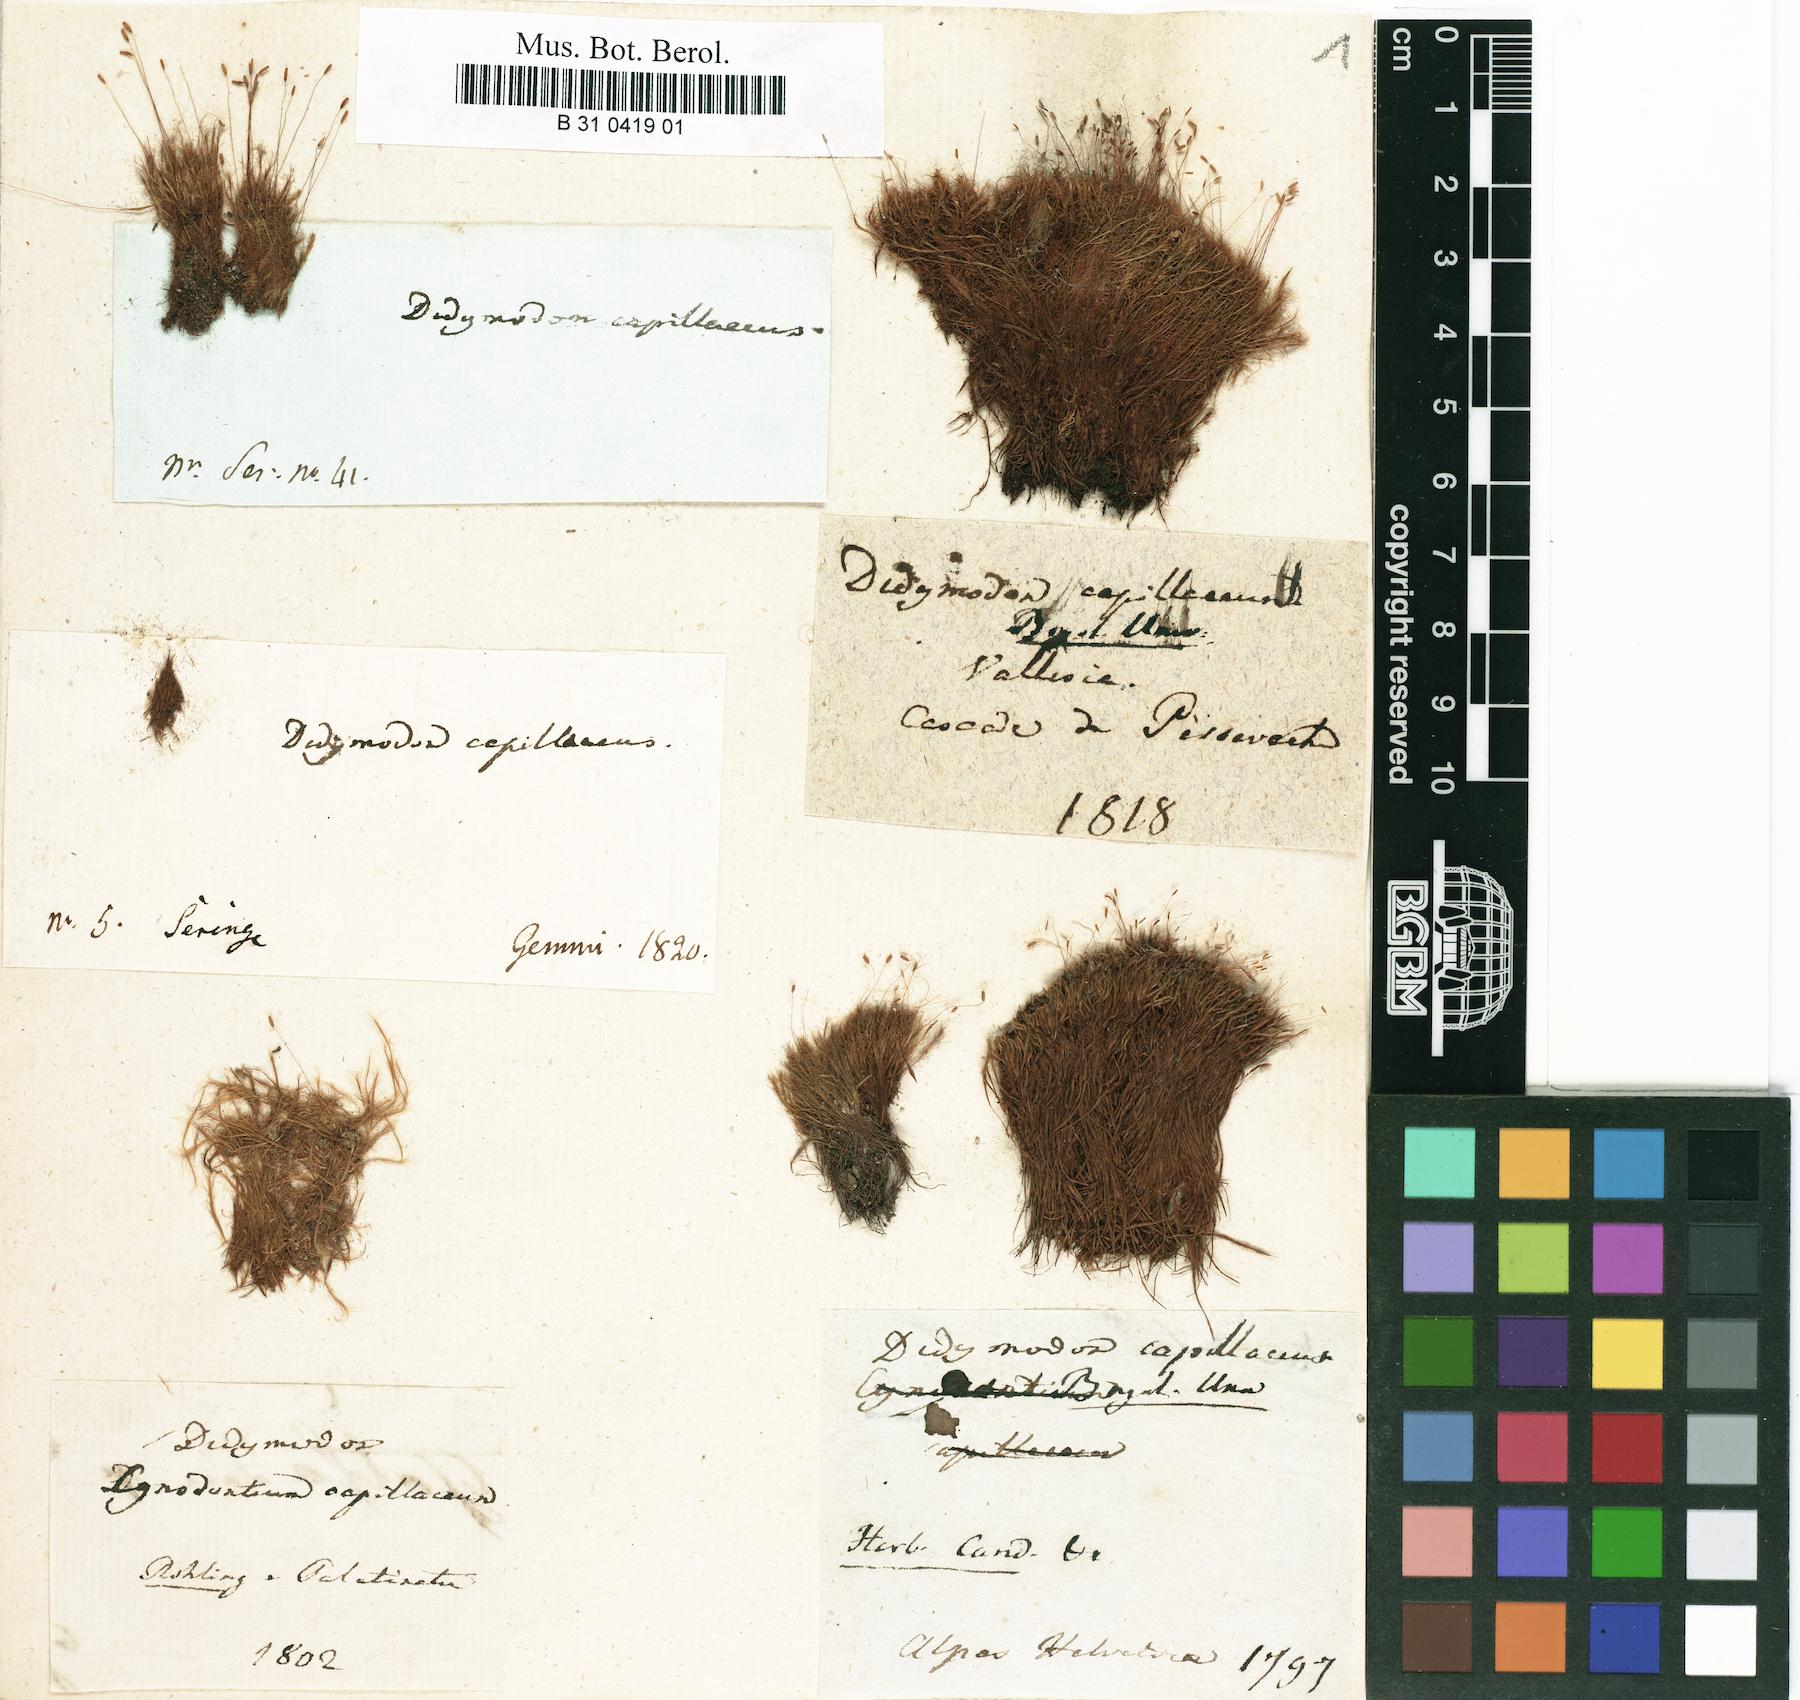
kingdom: Plantae
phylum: Bryophyta
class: Bryopsida
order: Scouleriales
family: Distichiaceae
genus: Distichium
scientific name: Distichium capillaceum
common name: Erect-fruited iris moss
